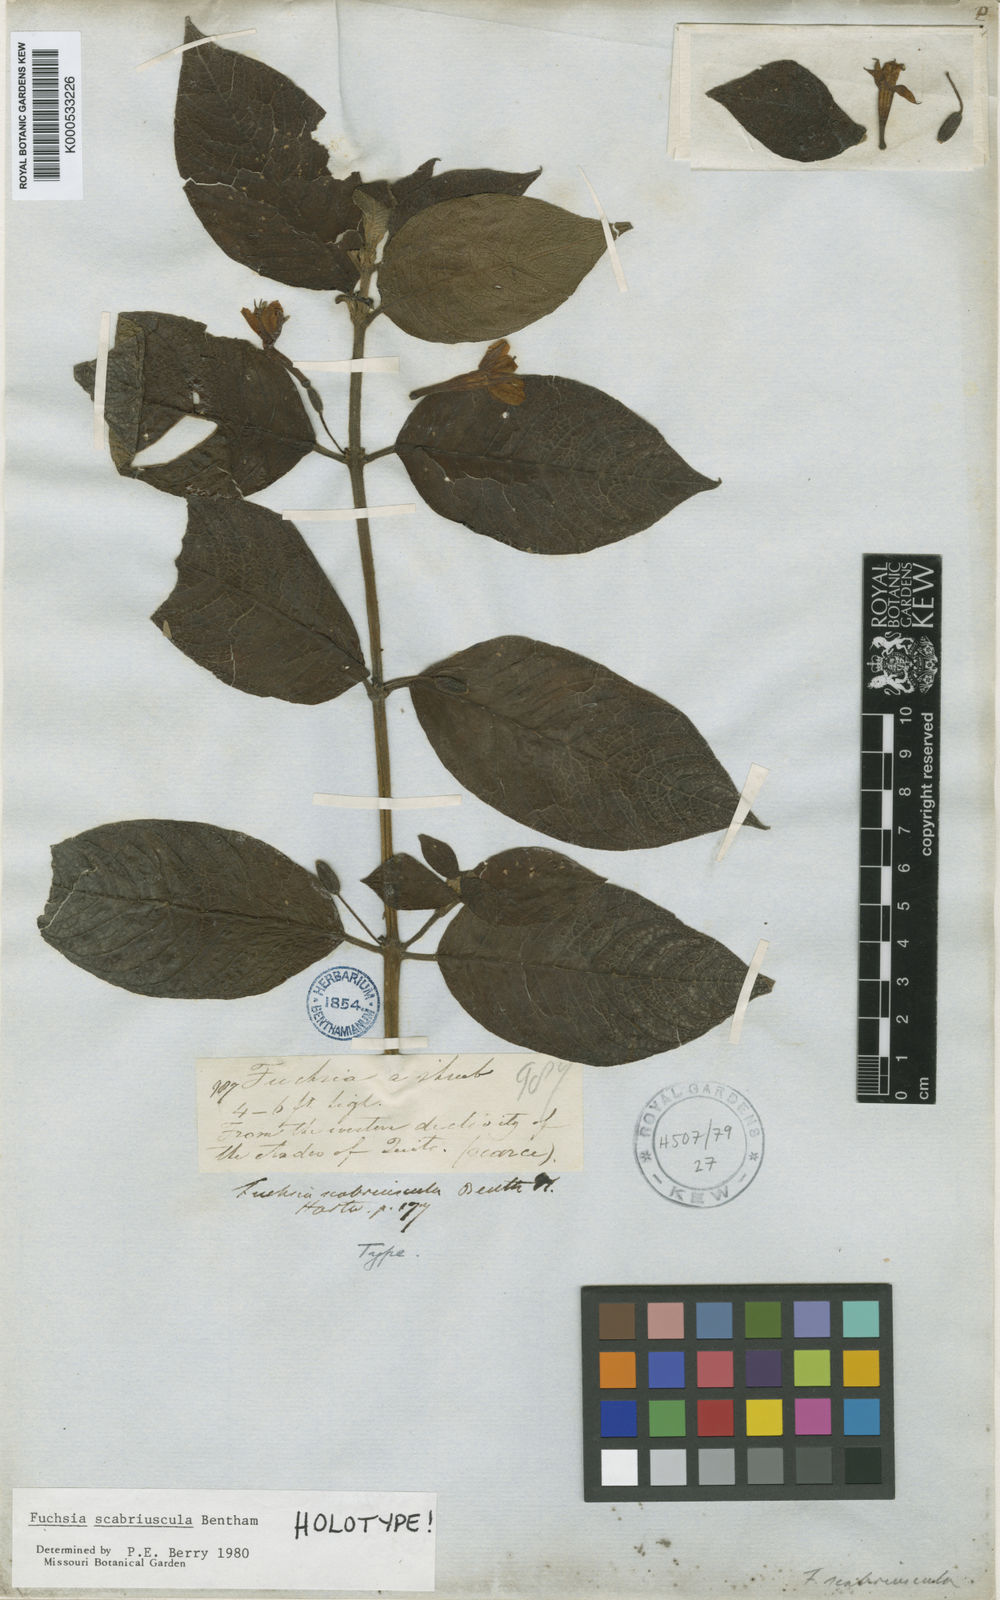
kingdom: Plantae
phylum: Tracheophyta
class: Magnoliopsida
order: Myrtales
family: Onagraceae
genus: Fuchsia
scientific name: Fuchsia scabriuscula
